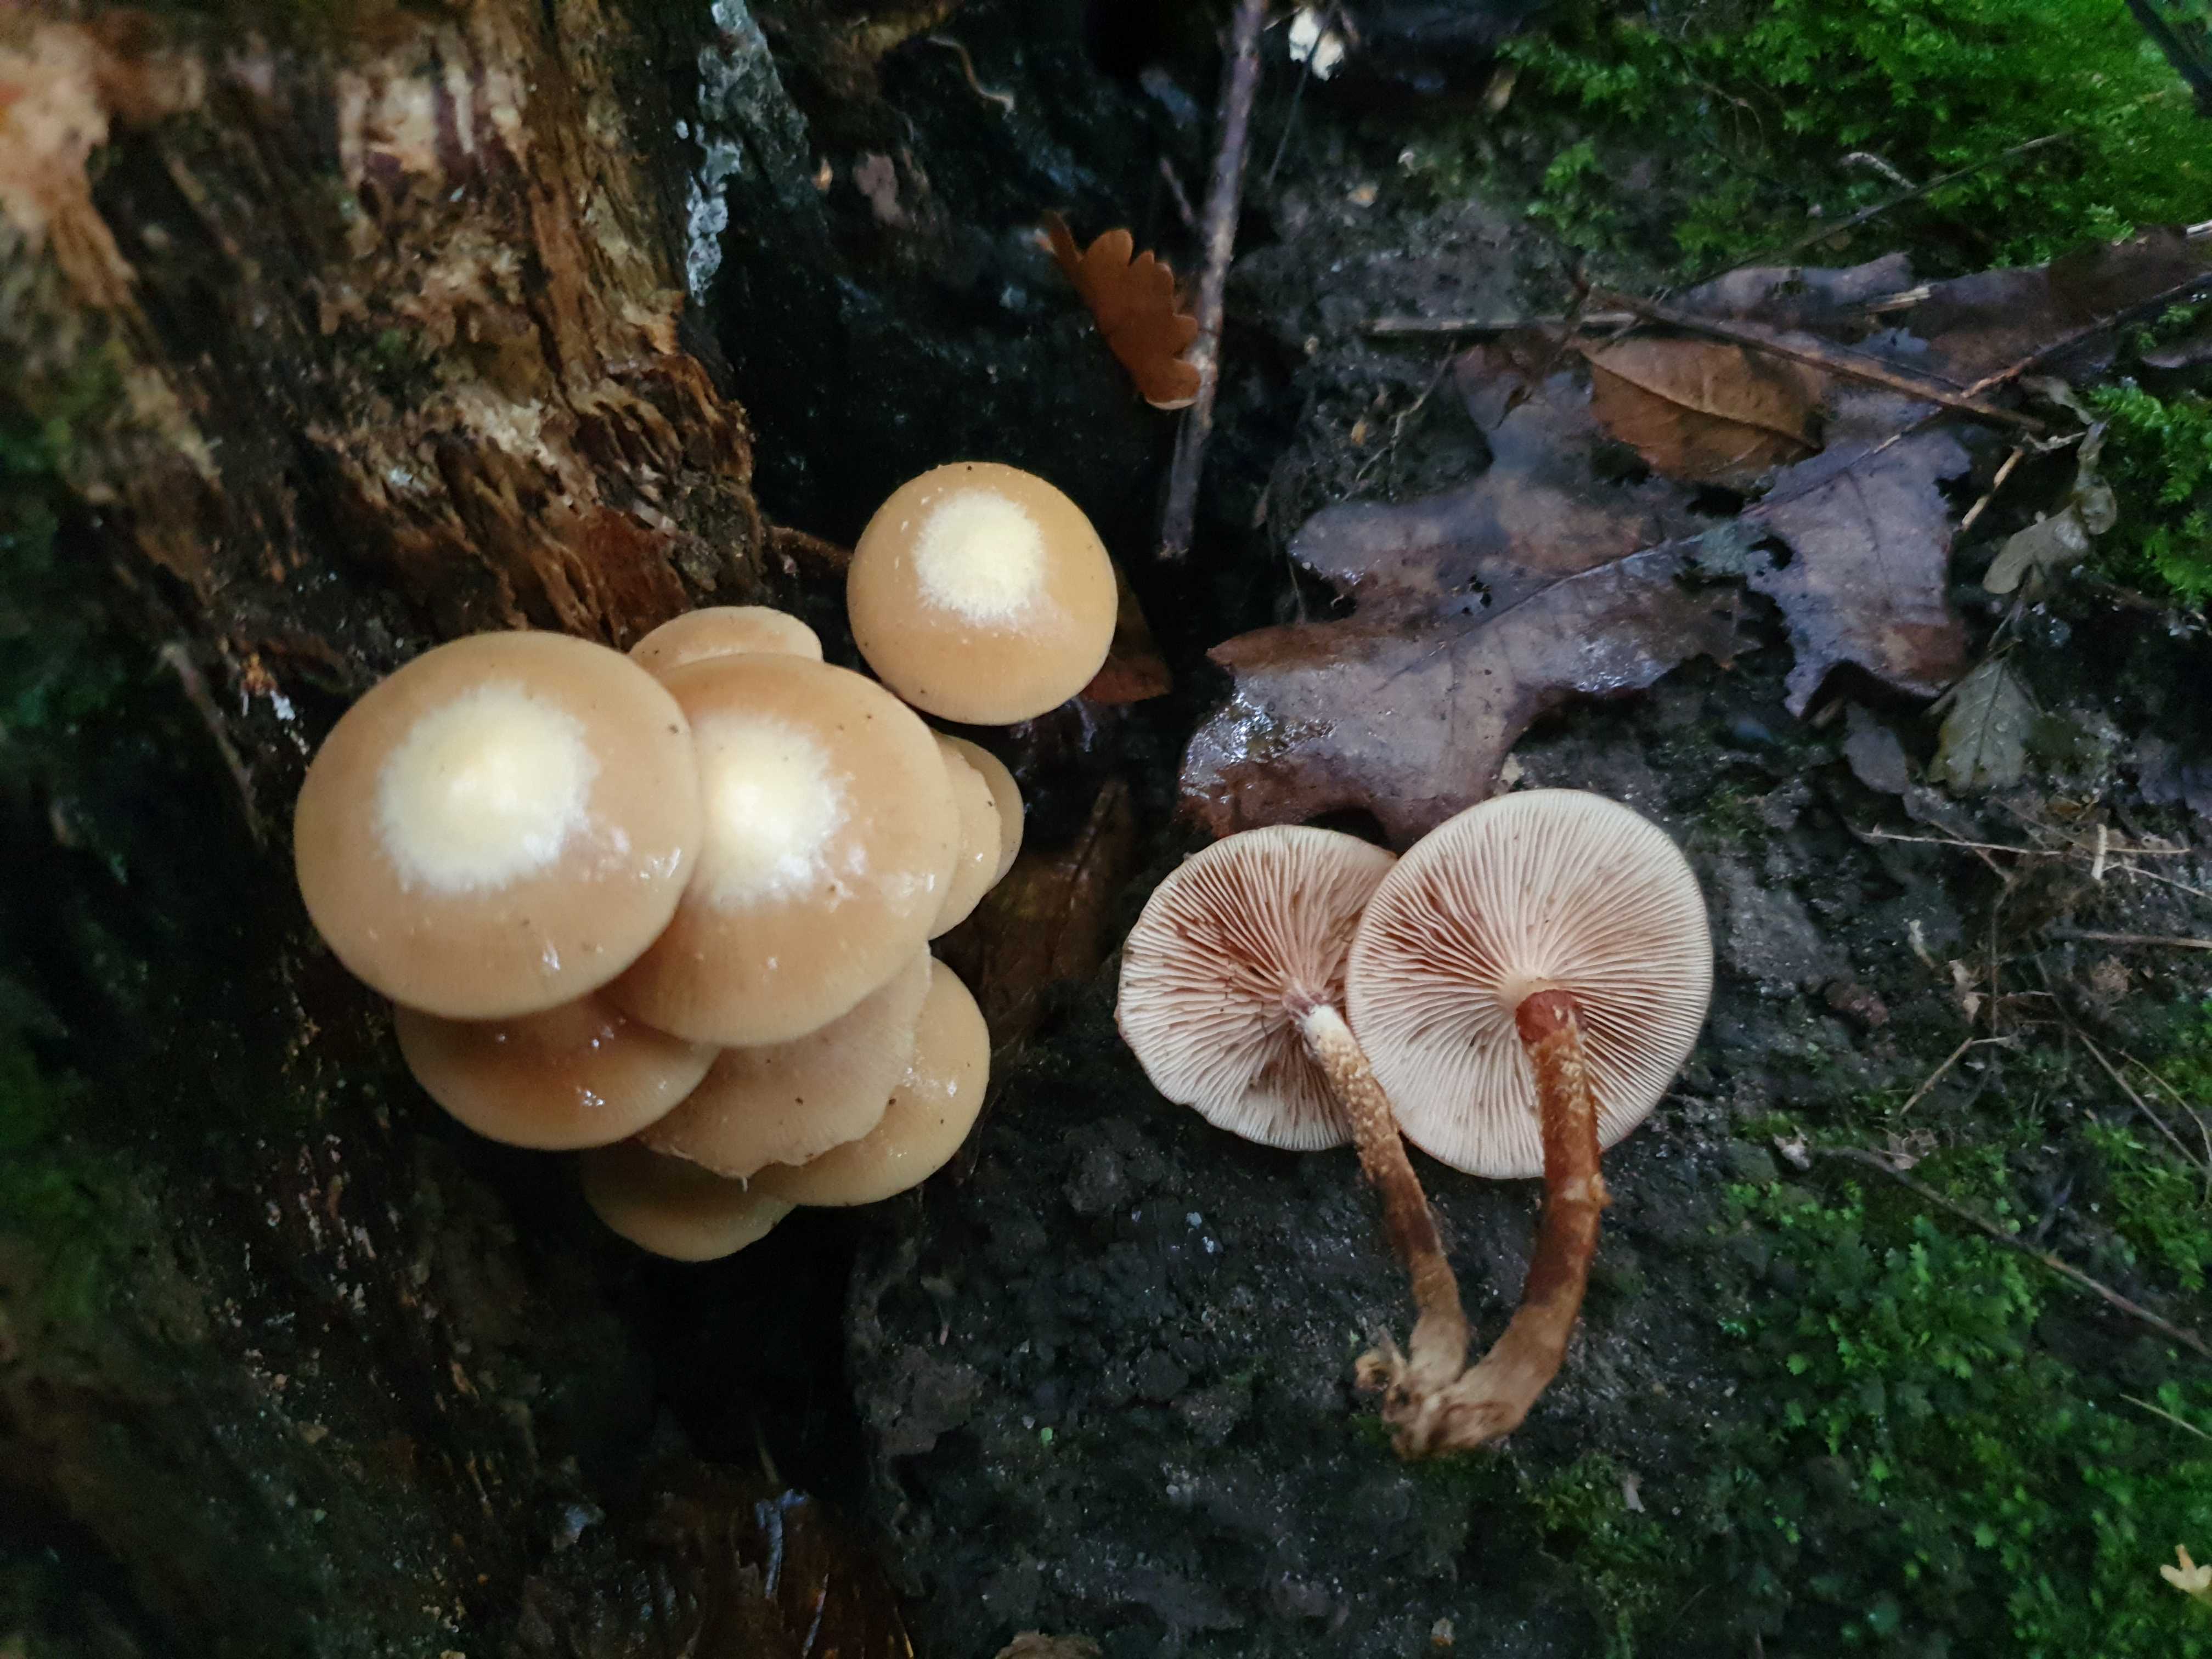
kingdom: Fungi
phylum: Basidiomycota
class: Agaricomycetes
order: Agaricales
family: Strophariaceae
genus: Kuehneromyces
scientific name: Kuehneromyces mutabilis
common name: foranderlig skælhat
